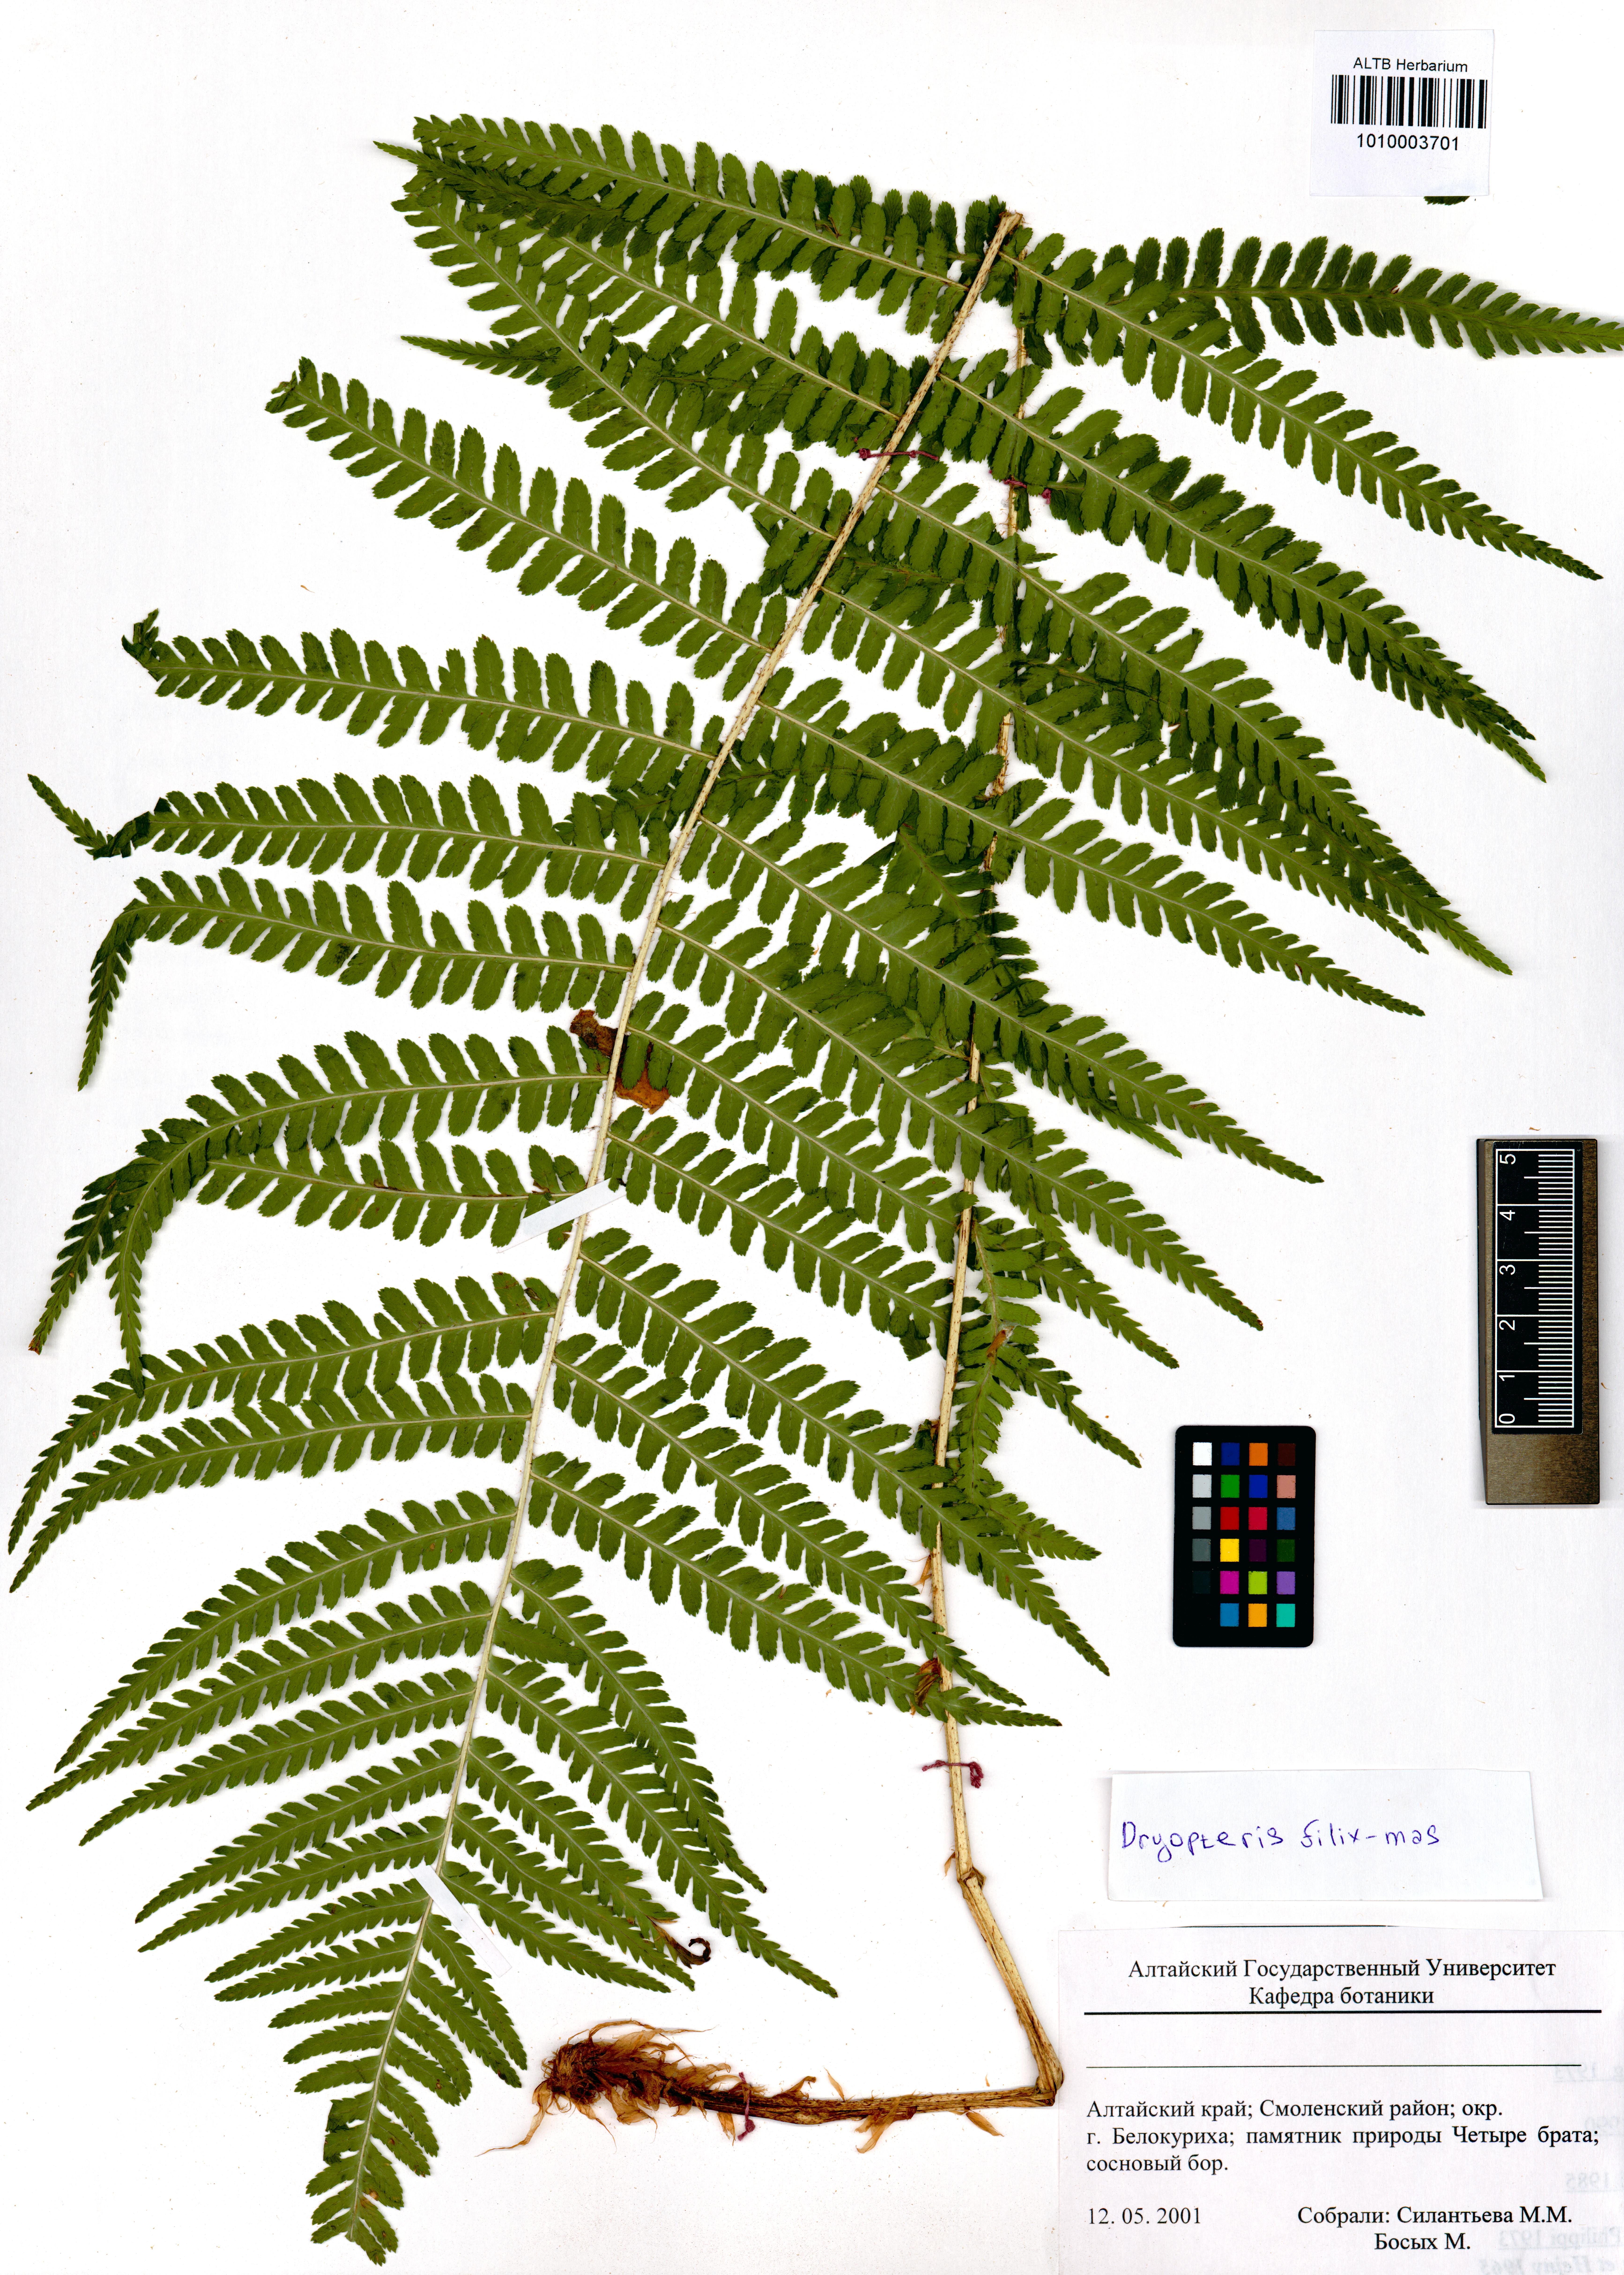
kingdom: Plantae
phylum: Tracheophyta
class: Polypodiopsida
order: Polypodiales
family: Dryopteridaceae
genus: Dryopteris
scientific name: Dryopteris filix-mas
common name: Male fern
